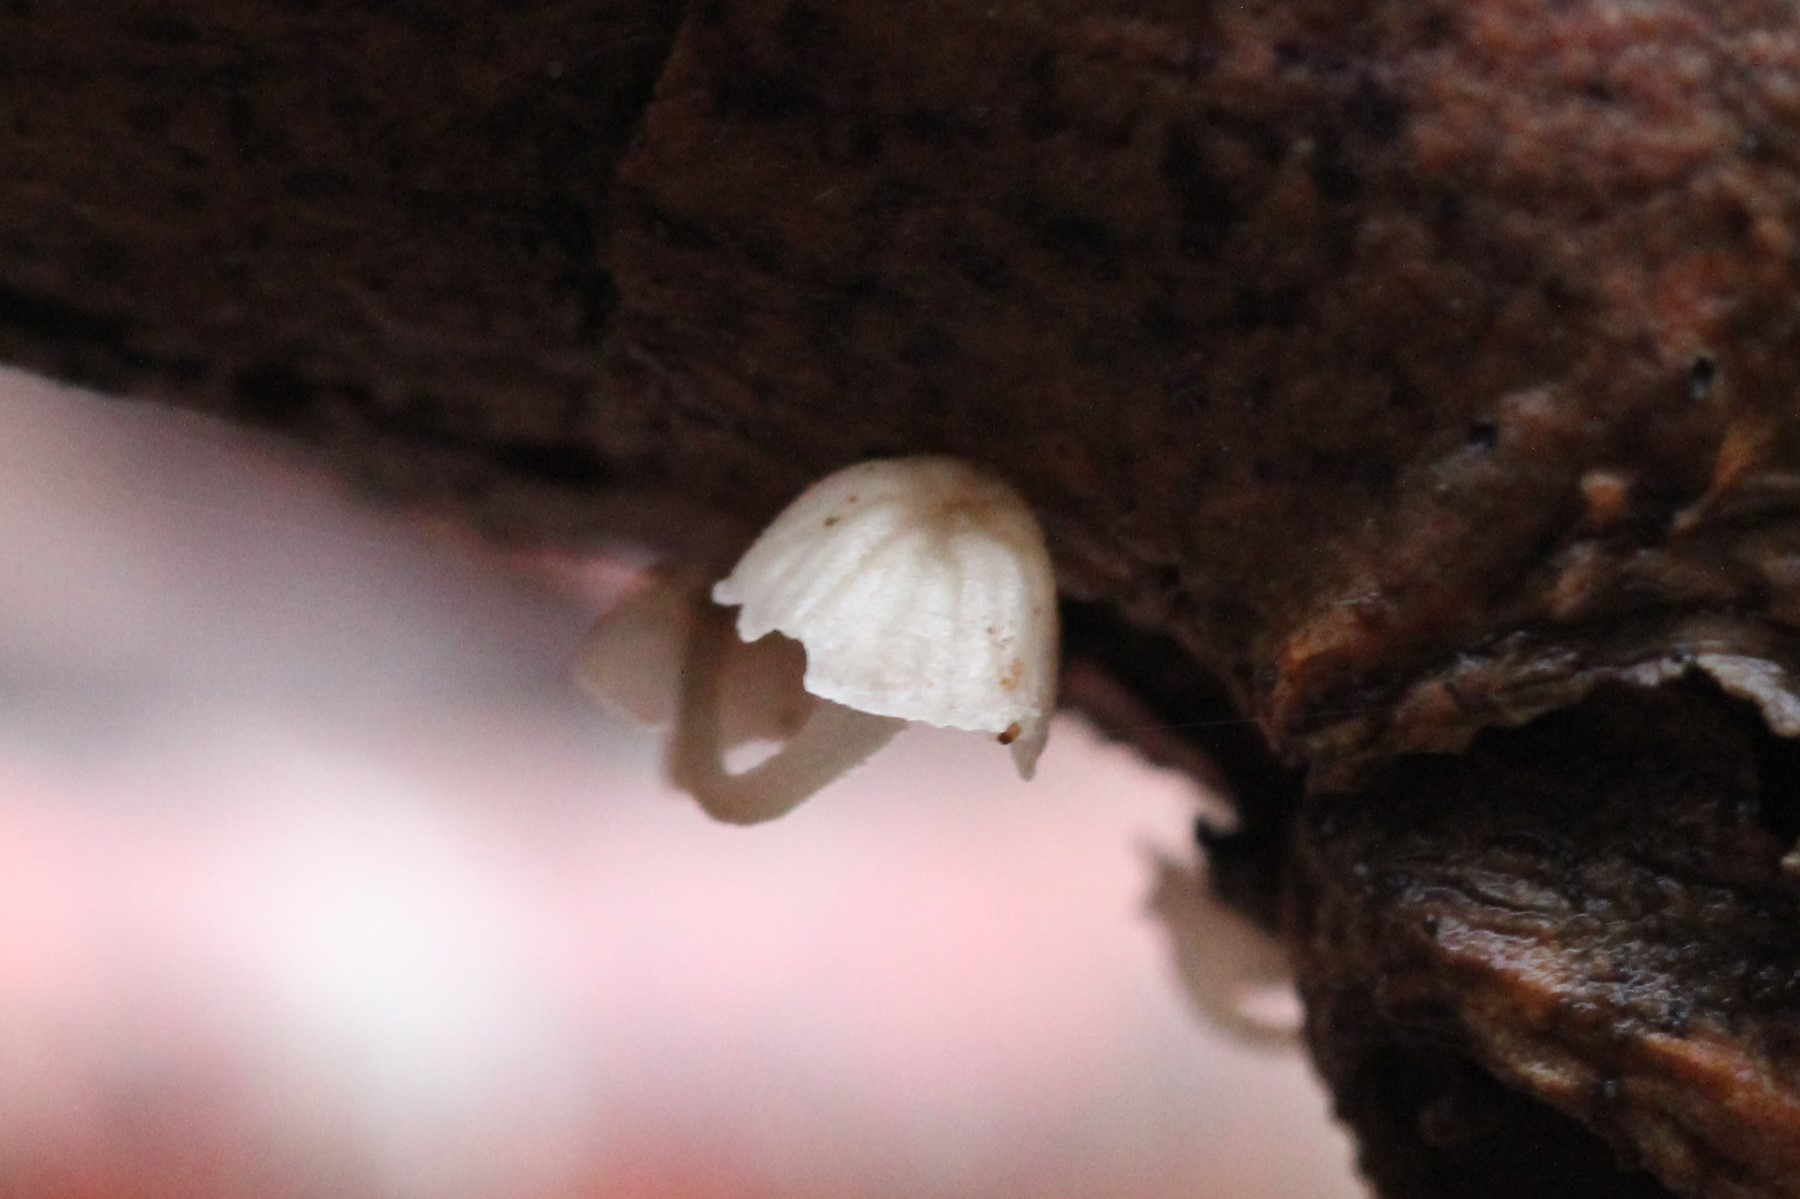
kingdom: Fungi
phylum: Basidiomycota
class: Agaricomycetes
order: Agaricales
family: Porotheleaceae
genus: Phloeomana
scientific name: Phloeomana speirea
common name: kvist-huesvamp
